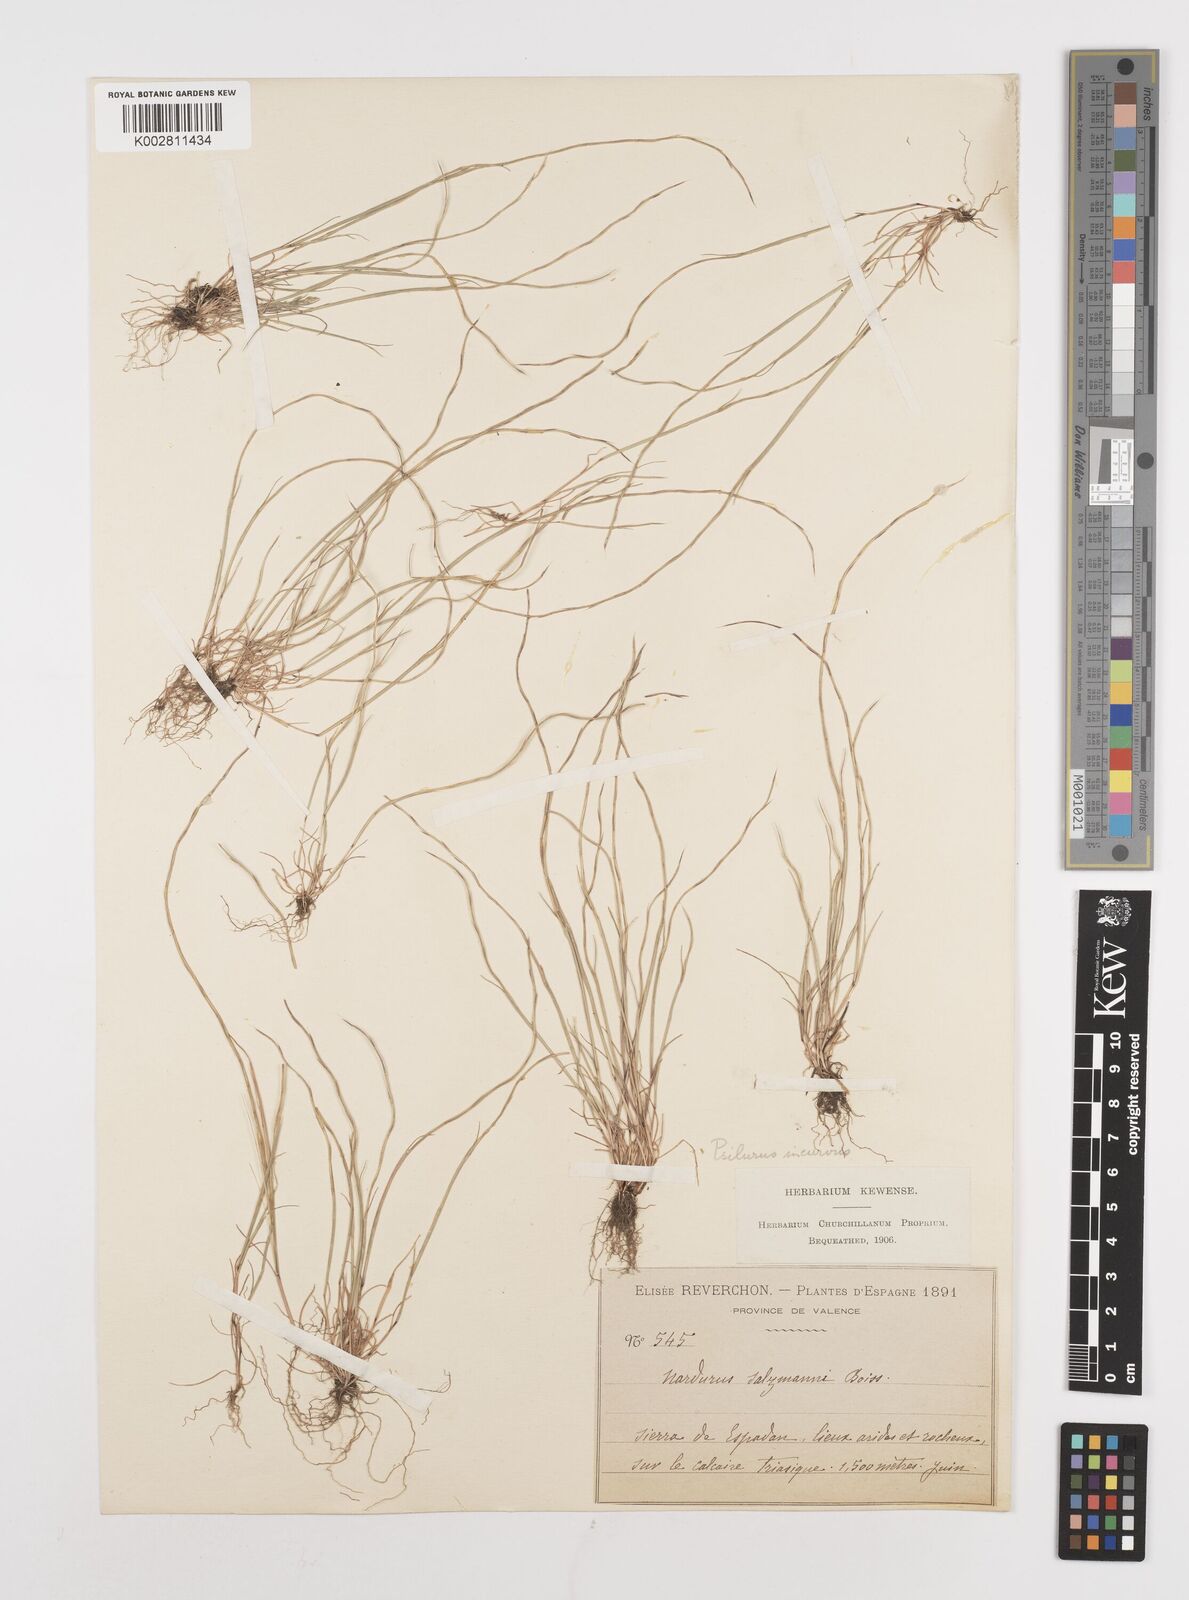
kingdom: Plantae
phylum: Tracheophyta
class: Liliopsida
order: Poales
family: Poaceae
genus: Festuca
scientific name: Festuca incurva
